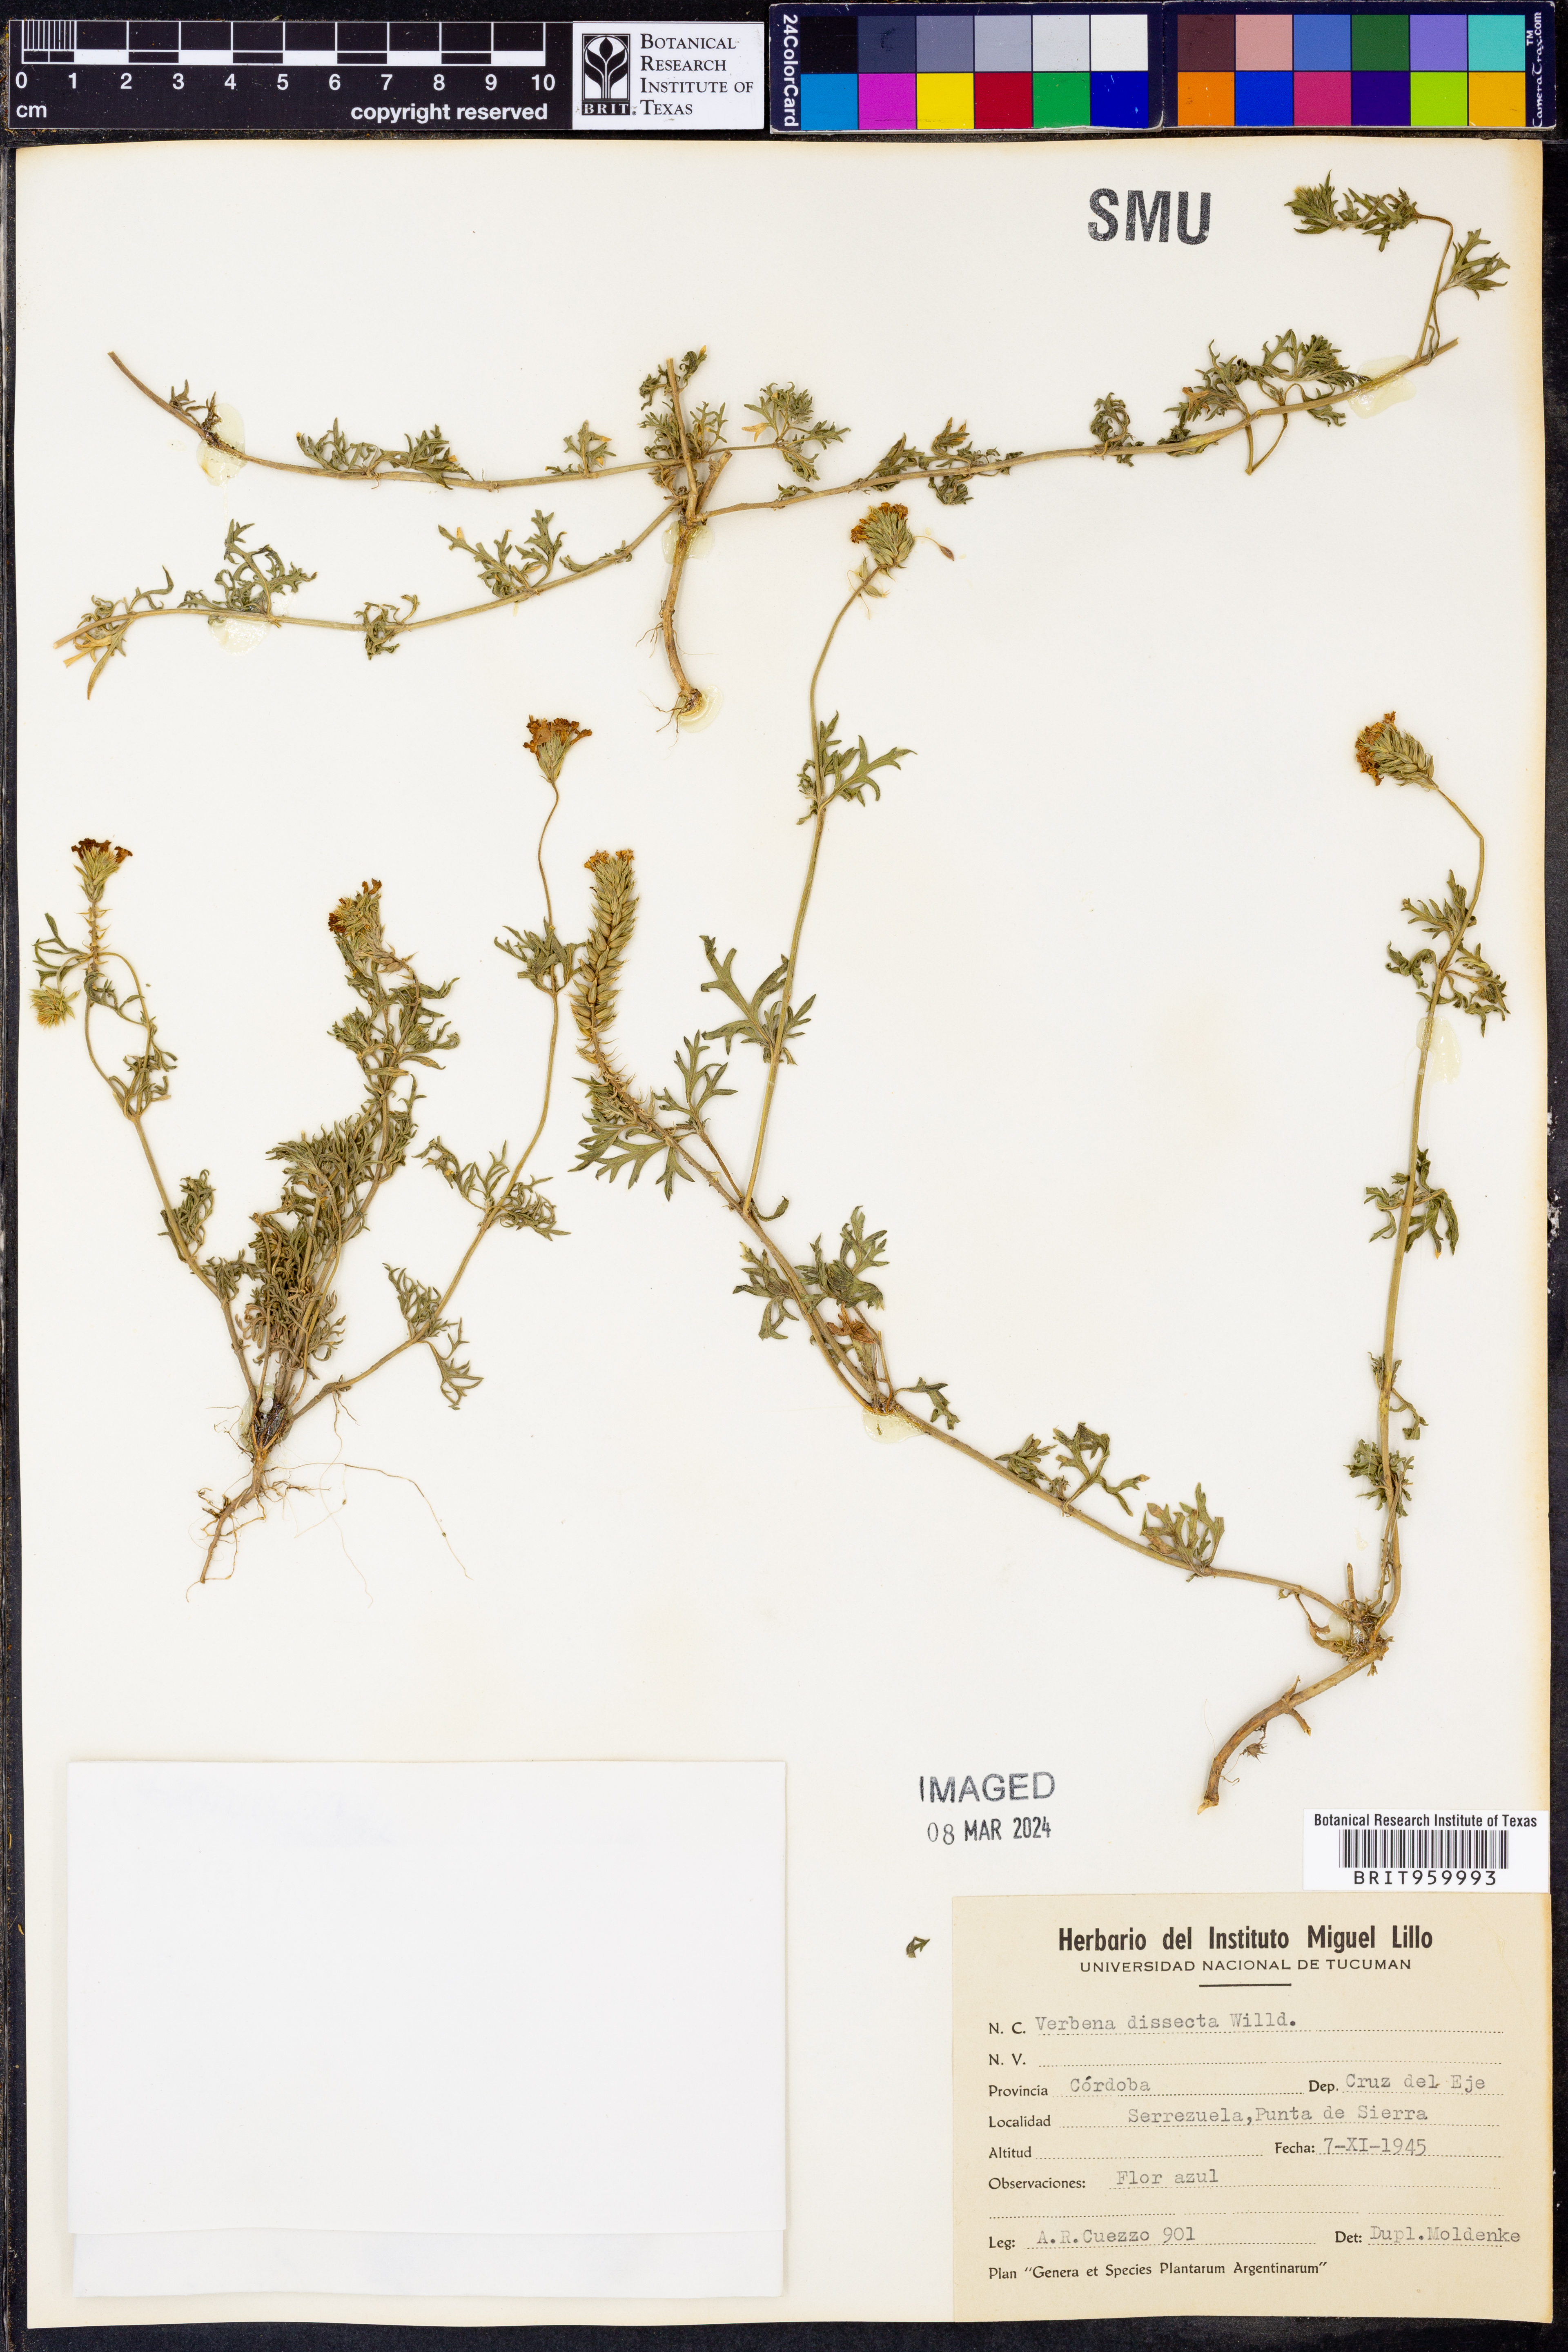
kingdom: Plantae
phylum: Tracheophyta
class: Magnoliopsida
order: Lamiales
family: Verbenaceae
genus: Verbena
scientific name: Verbena
